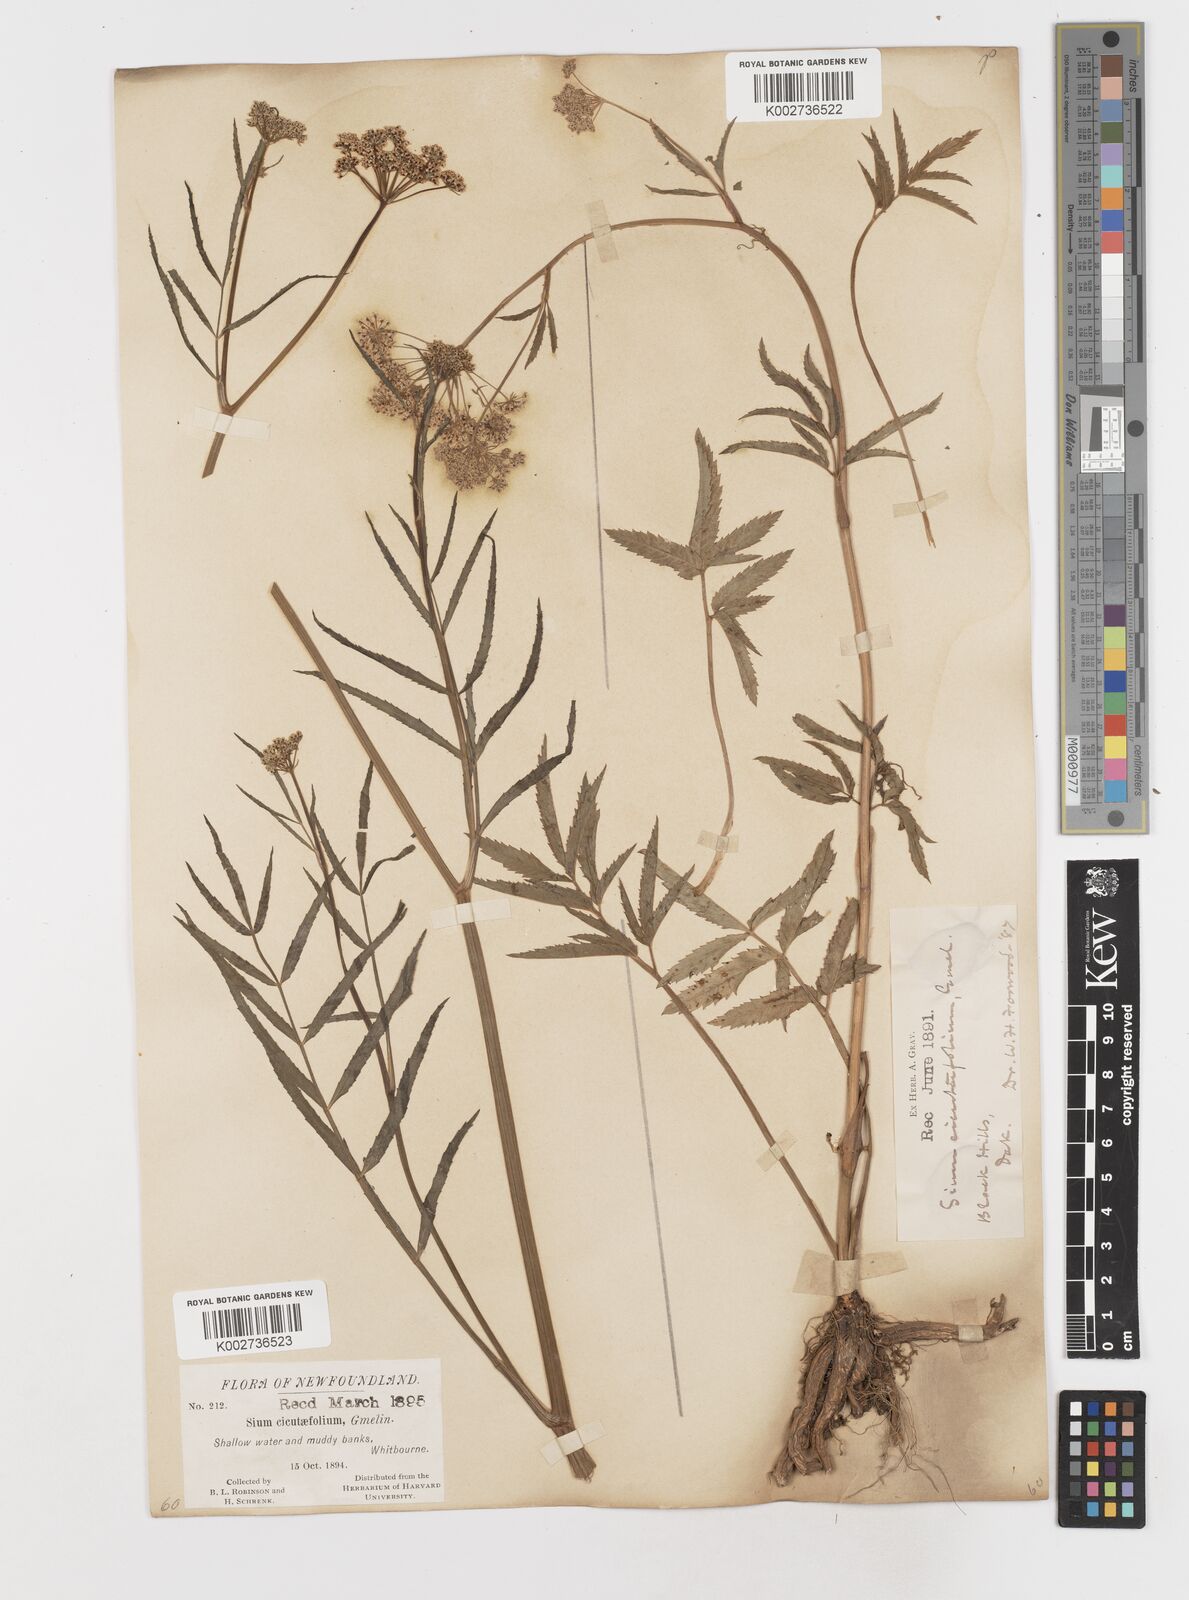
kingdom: Plantae
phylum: Tracheophyta
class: Magnoliopsida
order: Apiales
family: Apiaceae
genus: Sium
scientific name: Sium suave
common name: Hemlock water-parsnip
